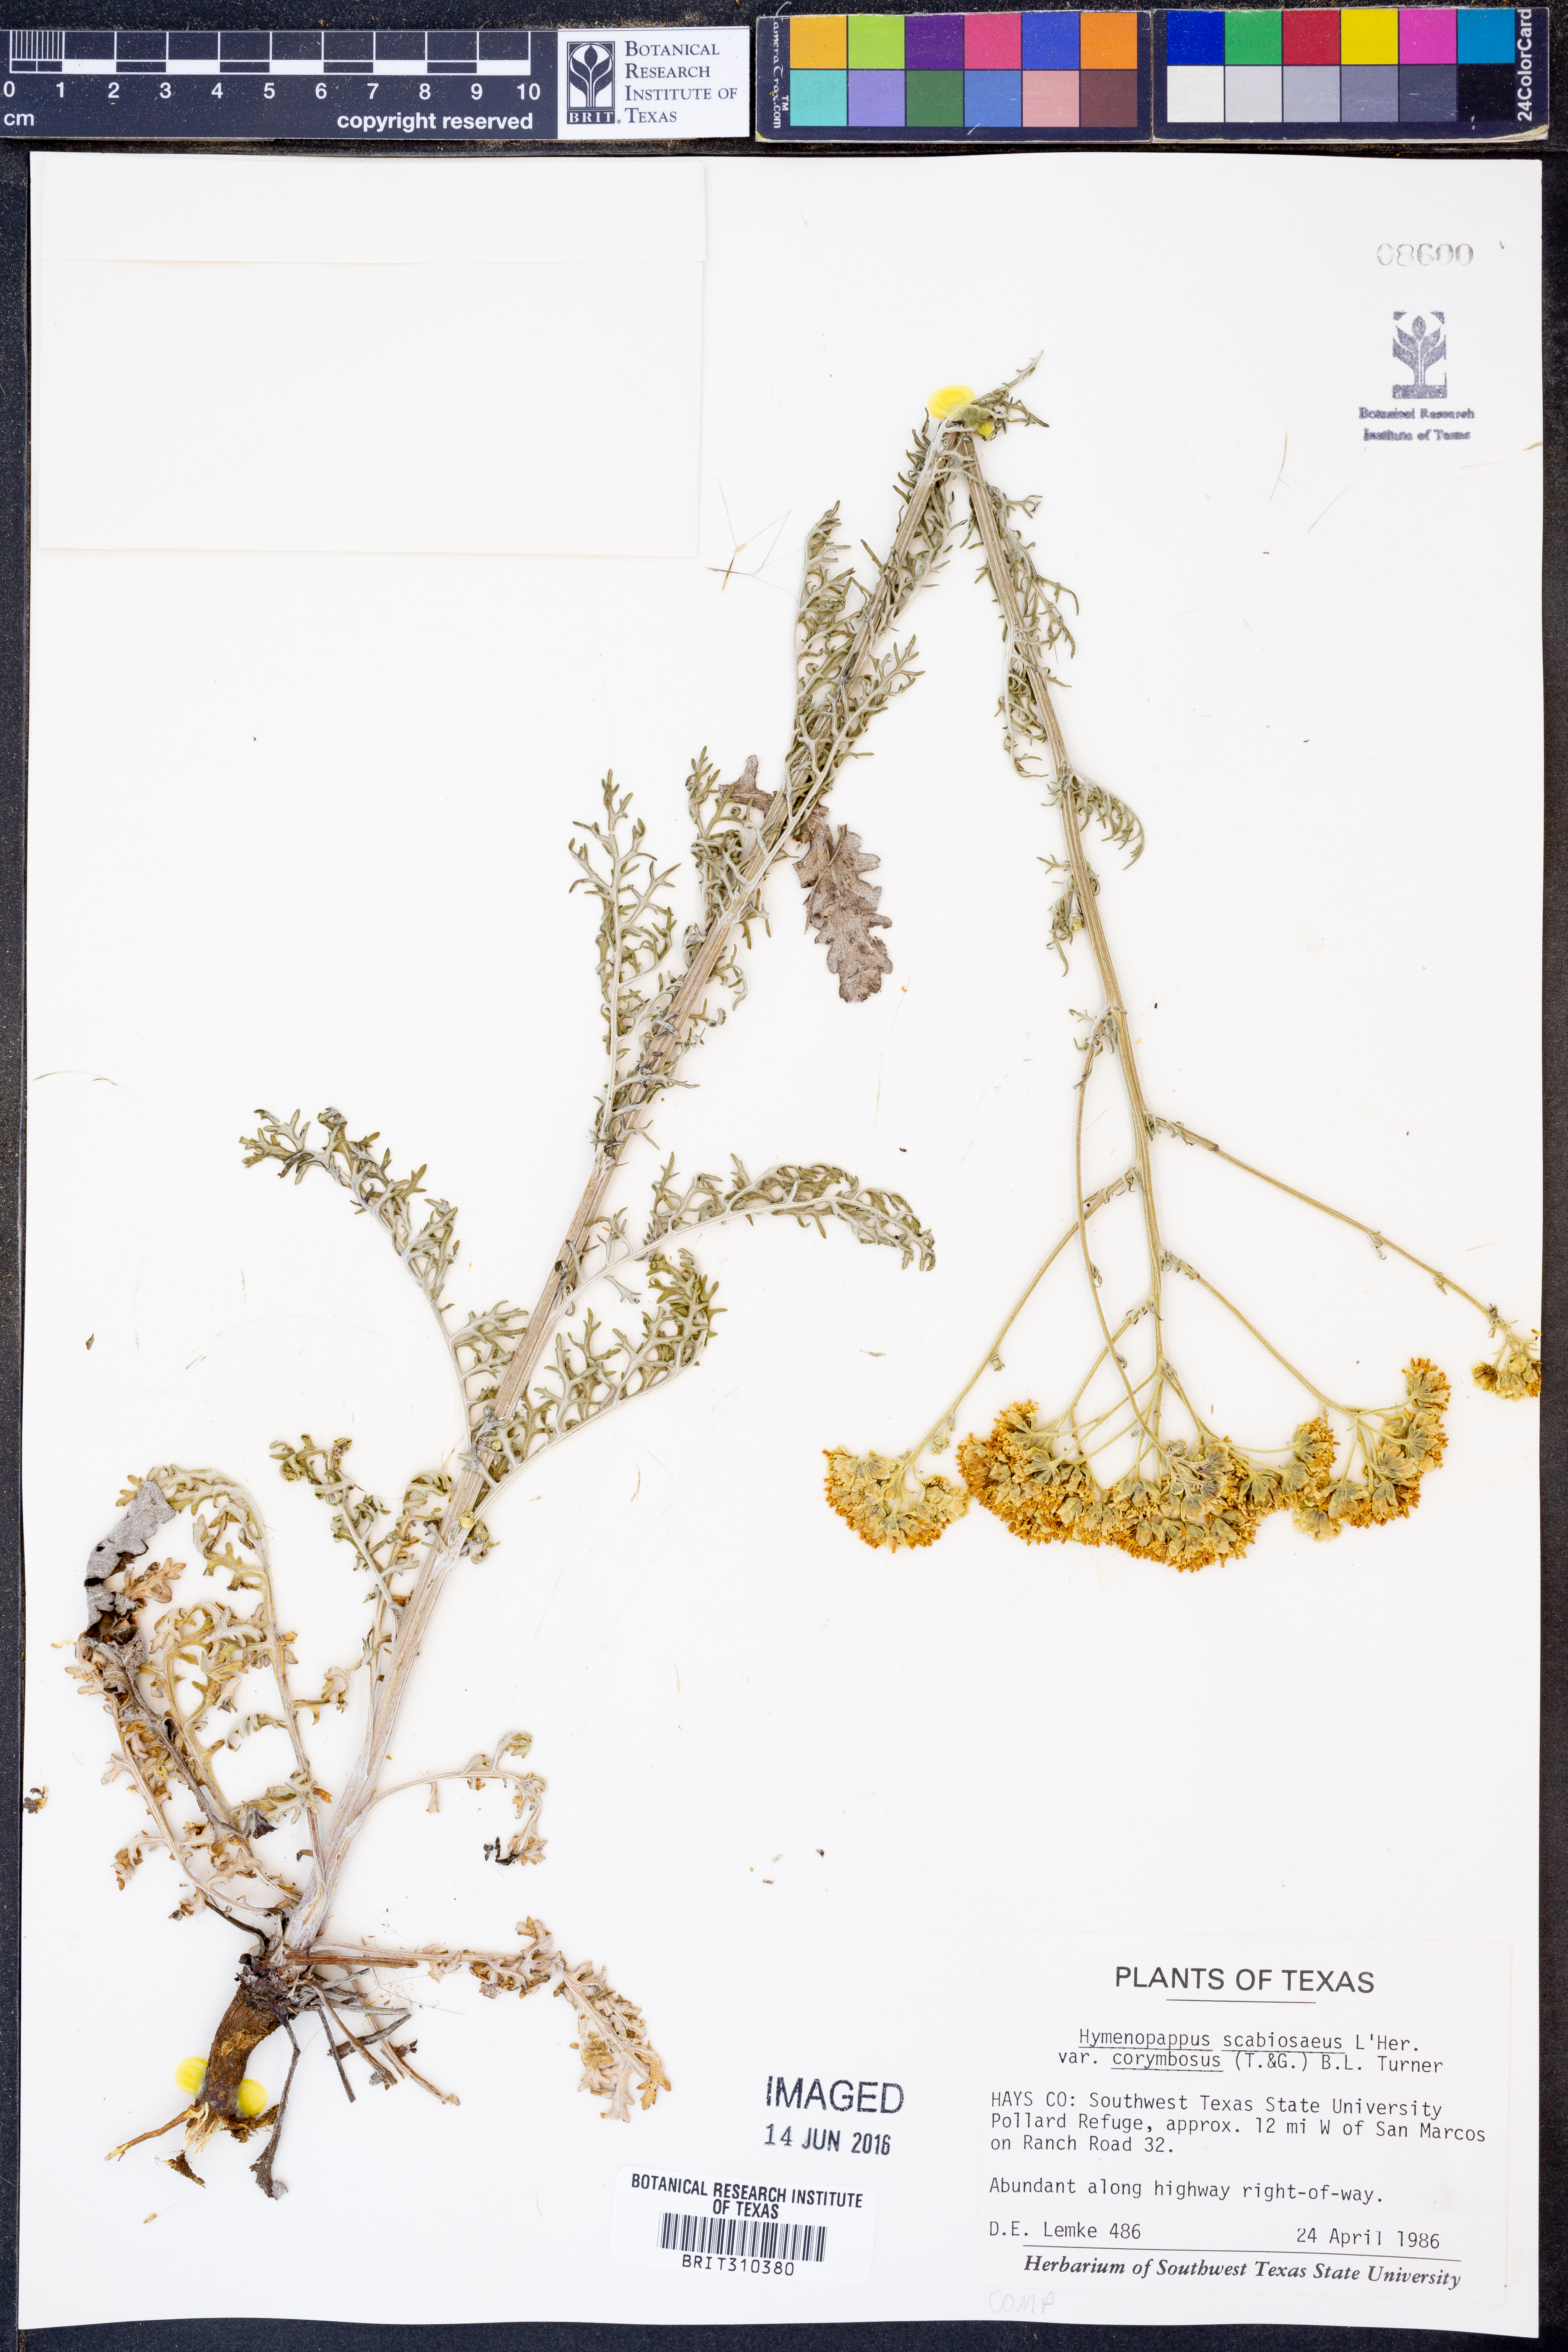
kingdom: Plantae
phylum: Tracheophyta
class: Magnoliopsida
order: Asterales
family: Asteraceae
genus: Hymenopappus
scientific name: Hymenopappus scabiosaeus
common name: Carolina woollywhite
